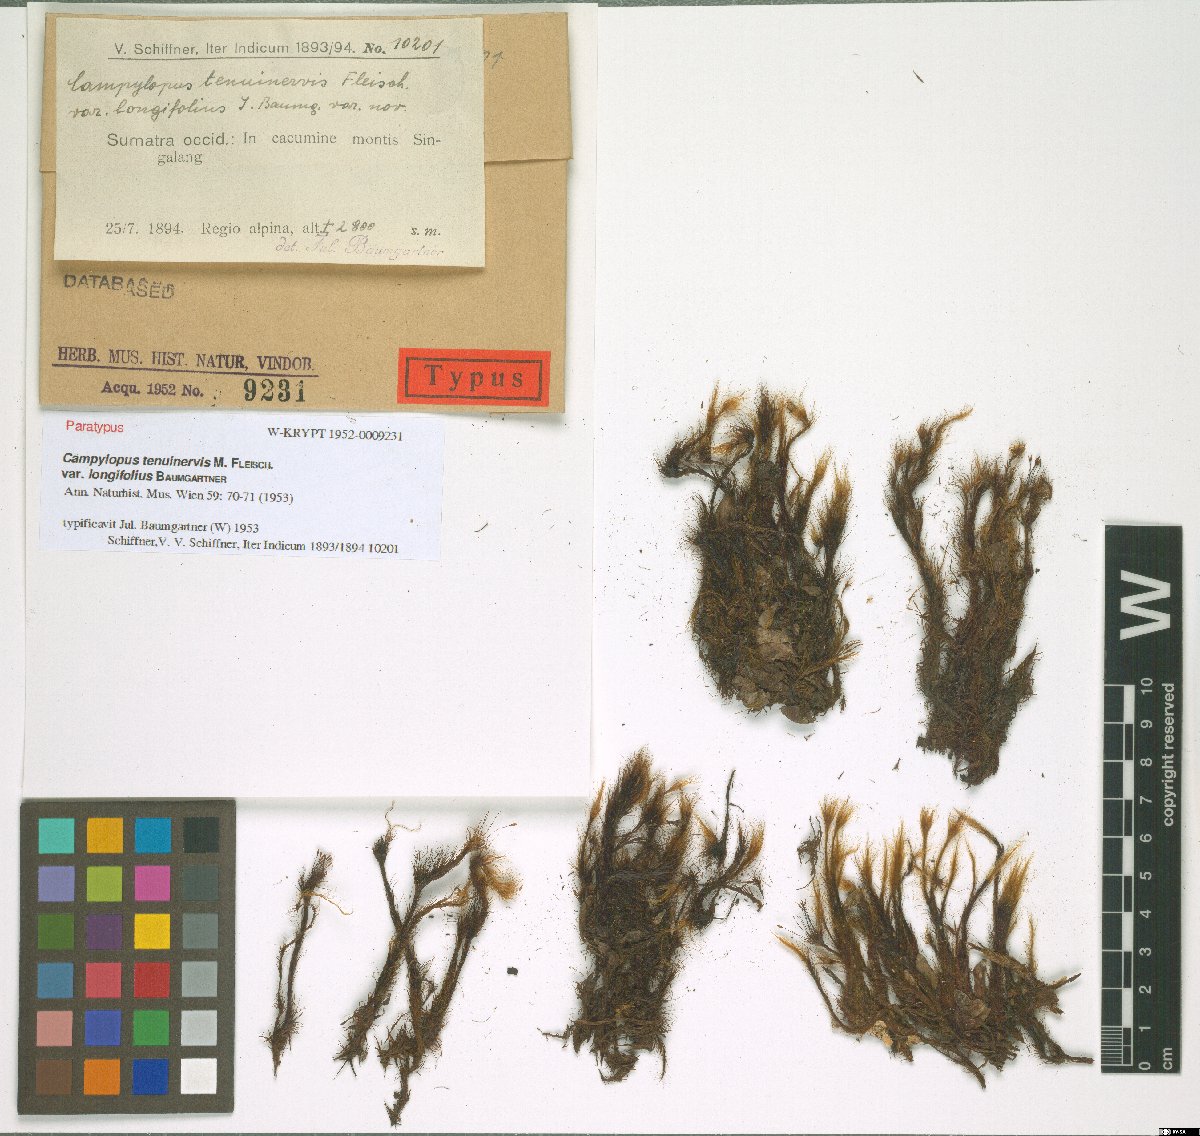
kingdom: Plantae
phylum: Bryophyta
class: Bryopsida
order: Dicranales
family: Leucobryaceae
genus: Campylopus
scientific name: Campylopus ericoides
